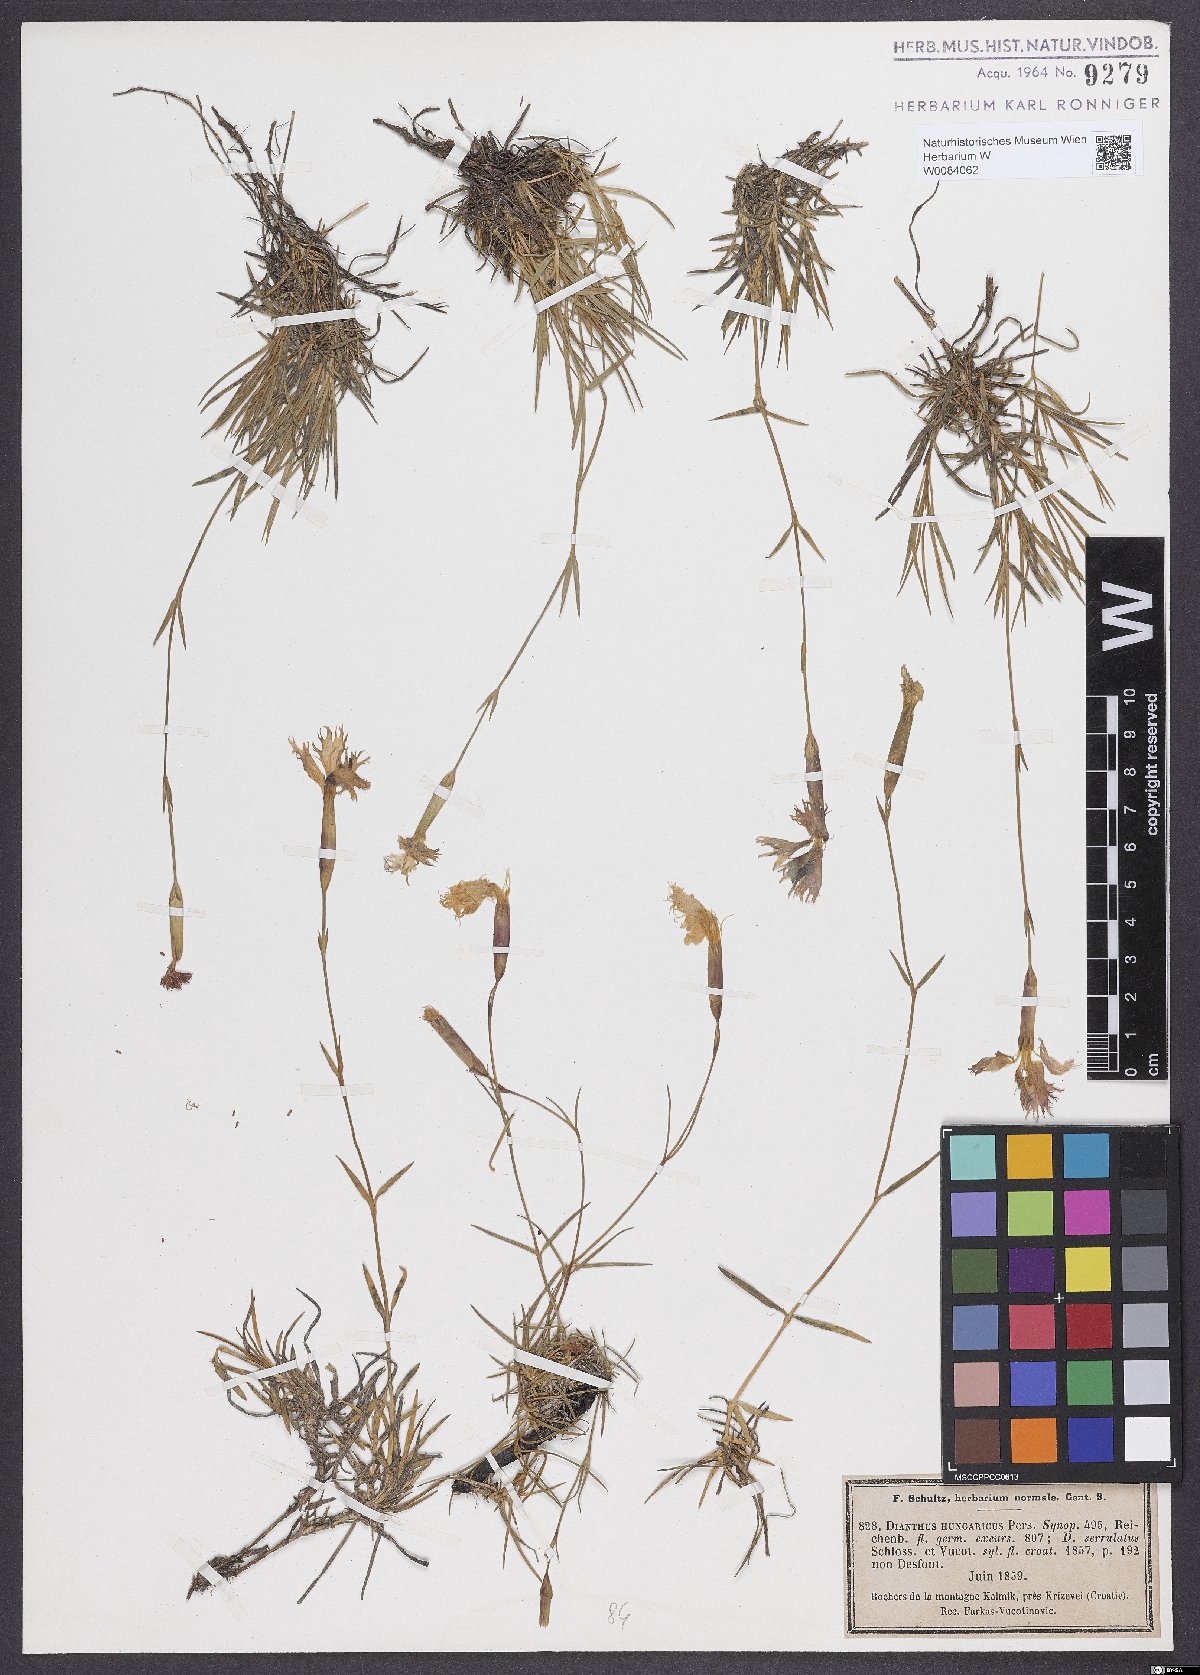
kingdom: Plantae
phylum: Tracheophyta
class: Magnoliopsida
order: Caryophyllales
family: Caryophyllaceae
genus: Dianthus
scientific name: Dianthus plumarius
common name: Pink
